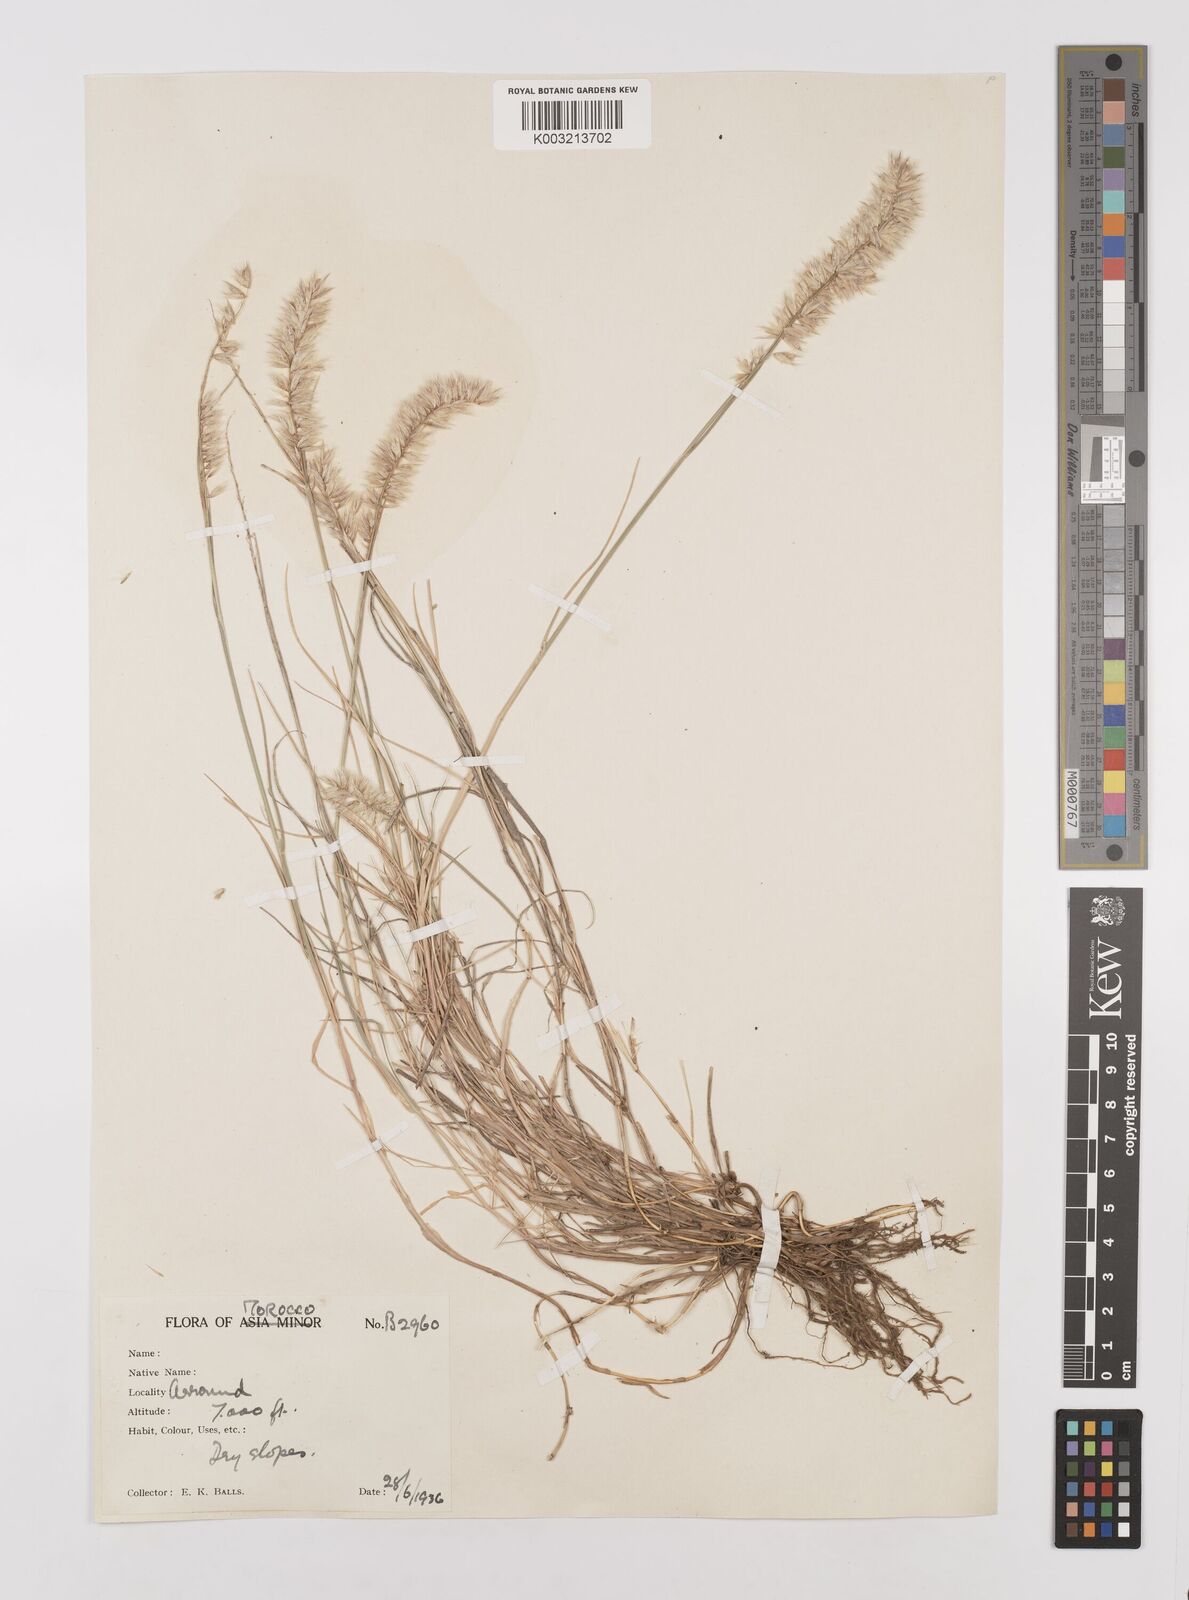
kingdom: Plantae
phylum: Tracheophyta
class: Liliopsida
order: Poales
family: Poaceae
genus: Melica
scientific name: Melica ciliata
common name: Hairy melicgrass
